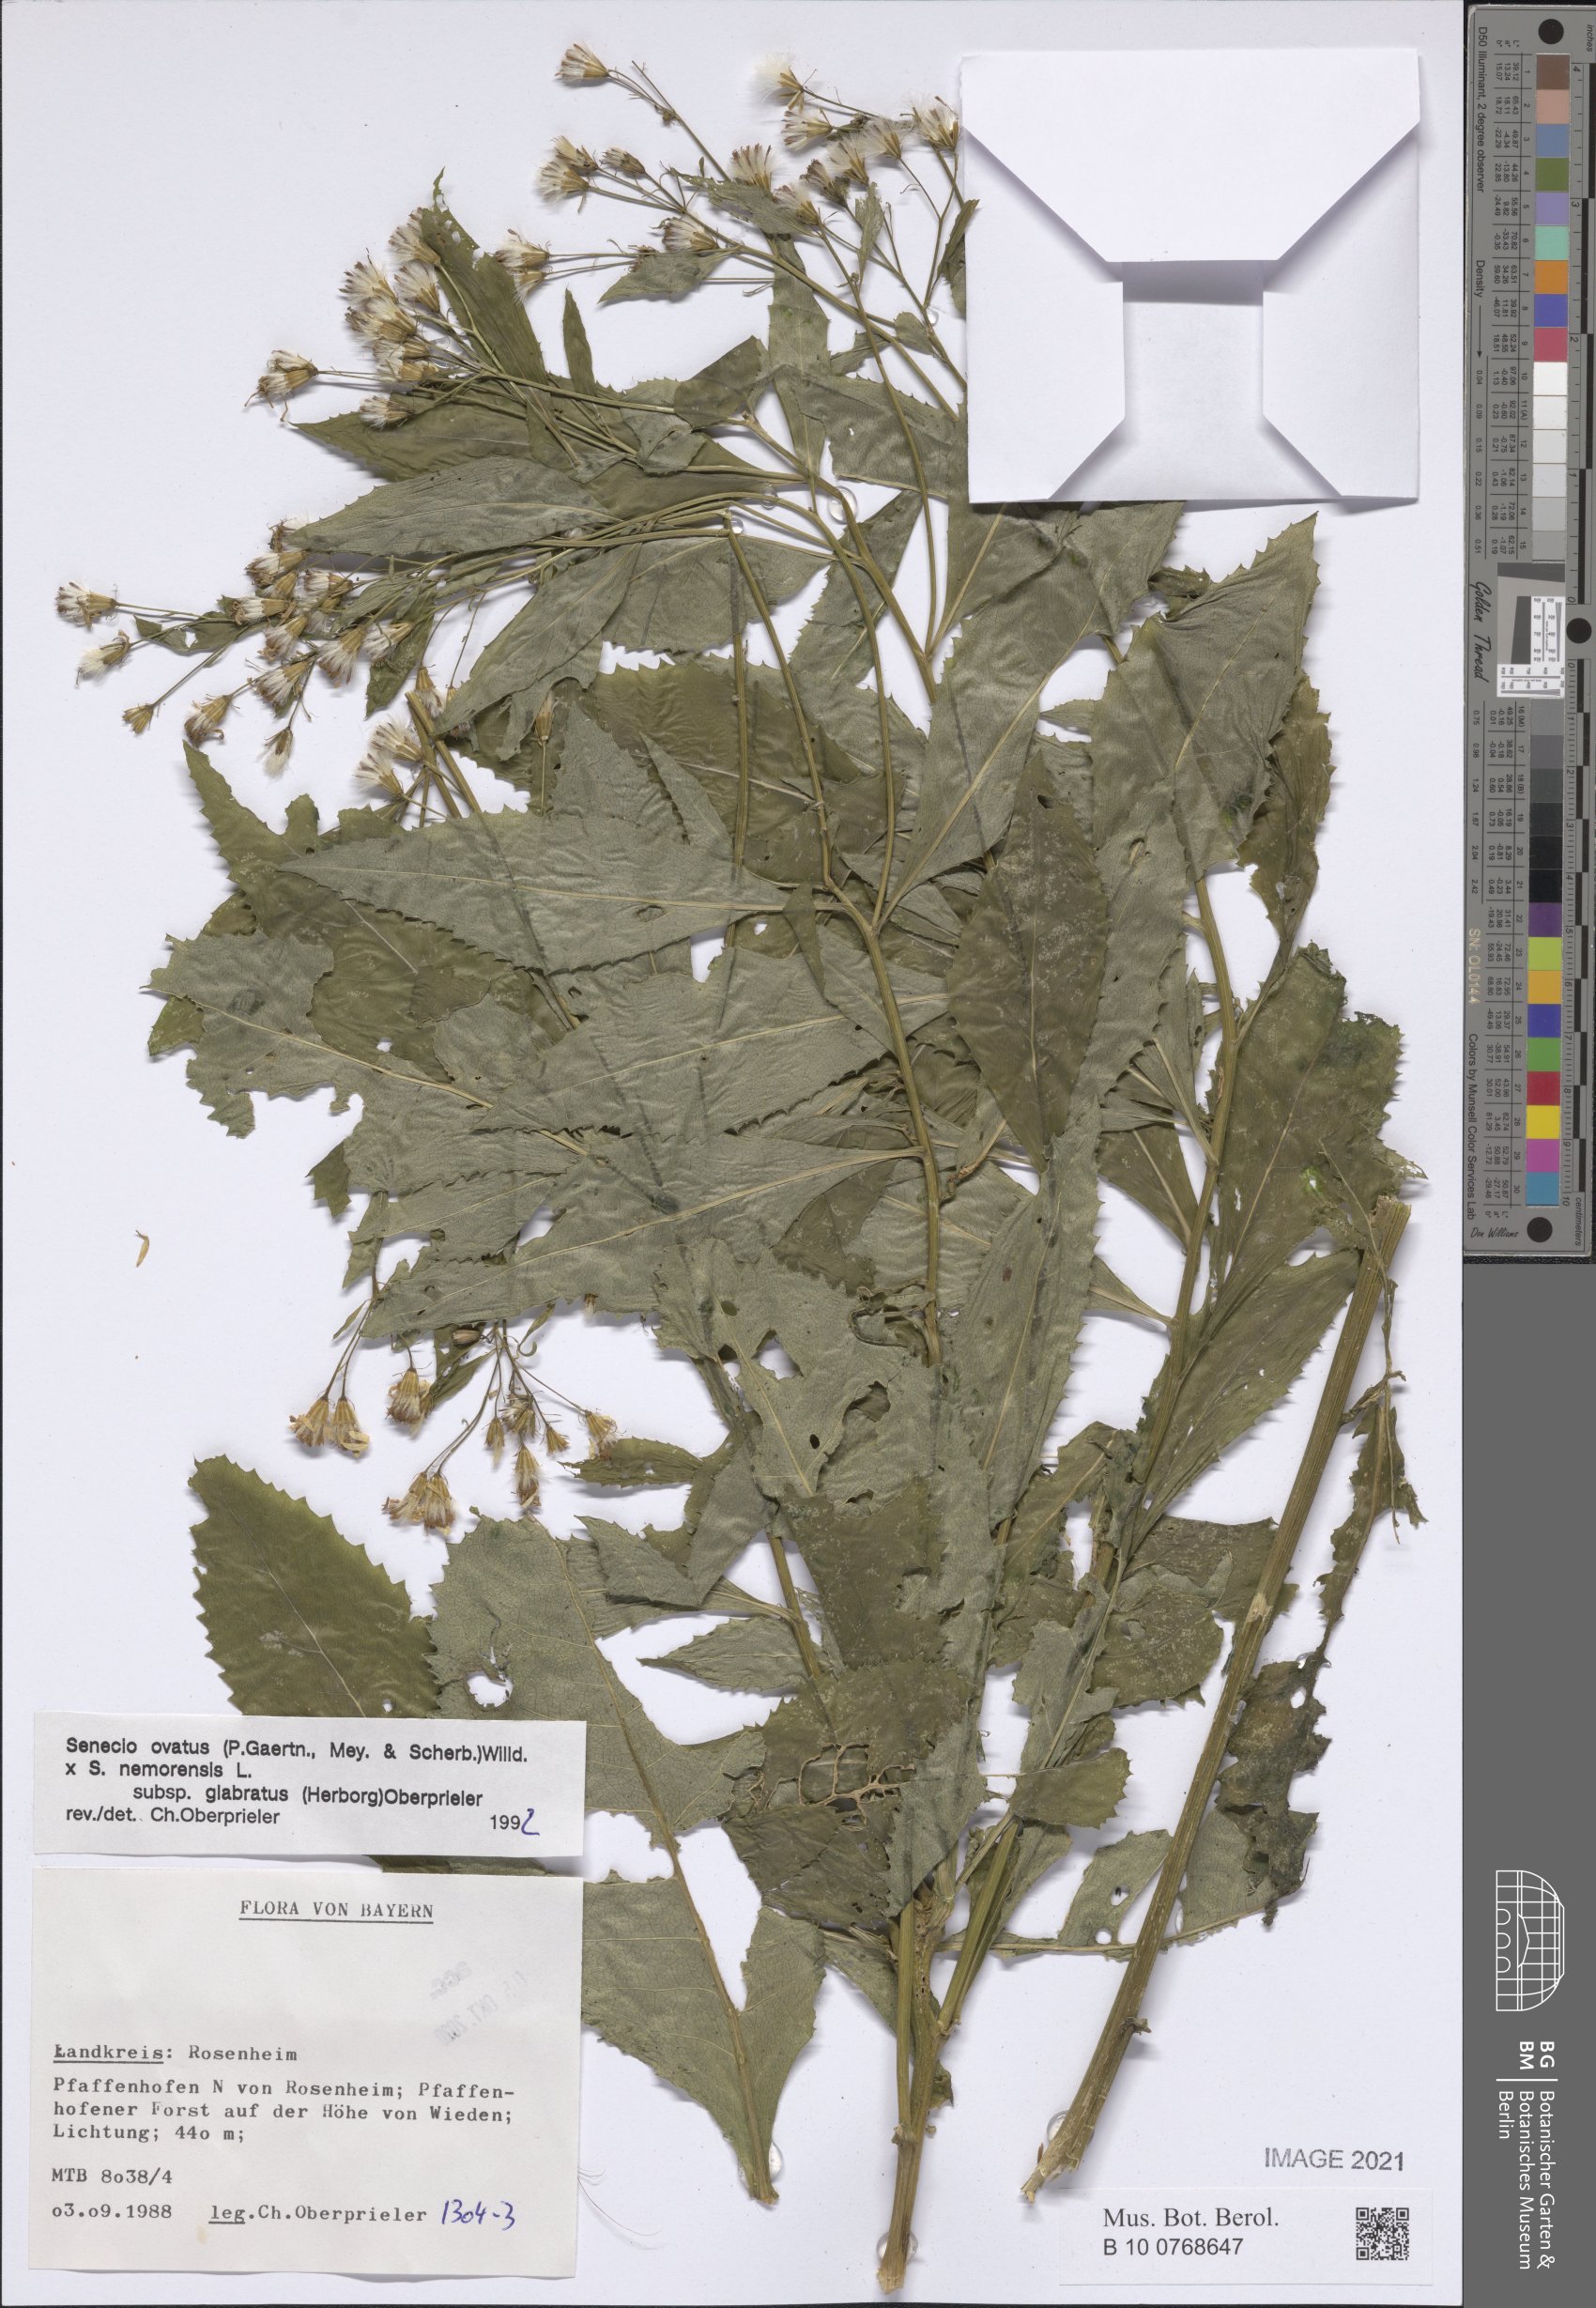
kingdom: Plantae
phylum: Tracheophyta
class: Magnoliopsida
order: Asterales
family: Asteraceae
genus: Senecio
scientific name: Senecio ovatus
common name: Wood ragwort
